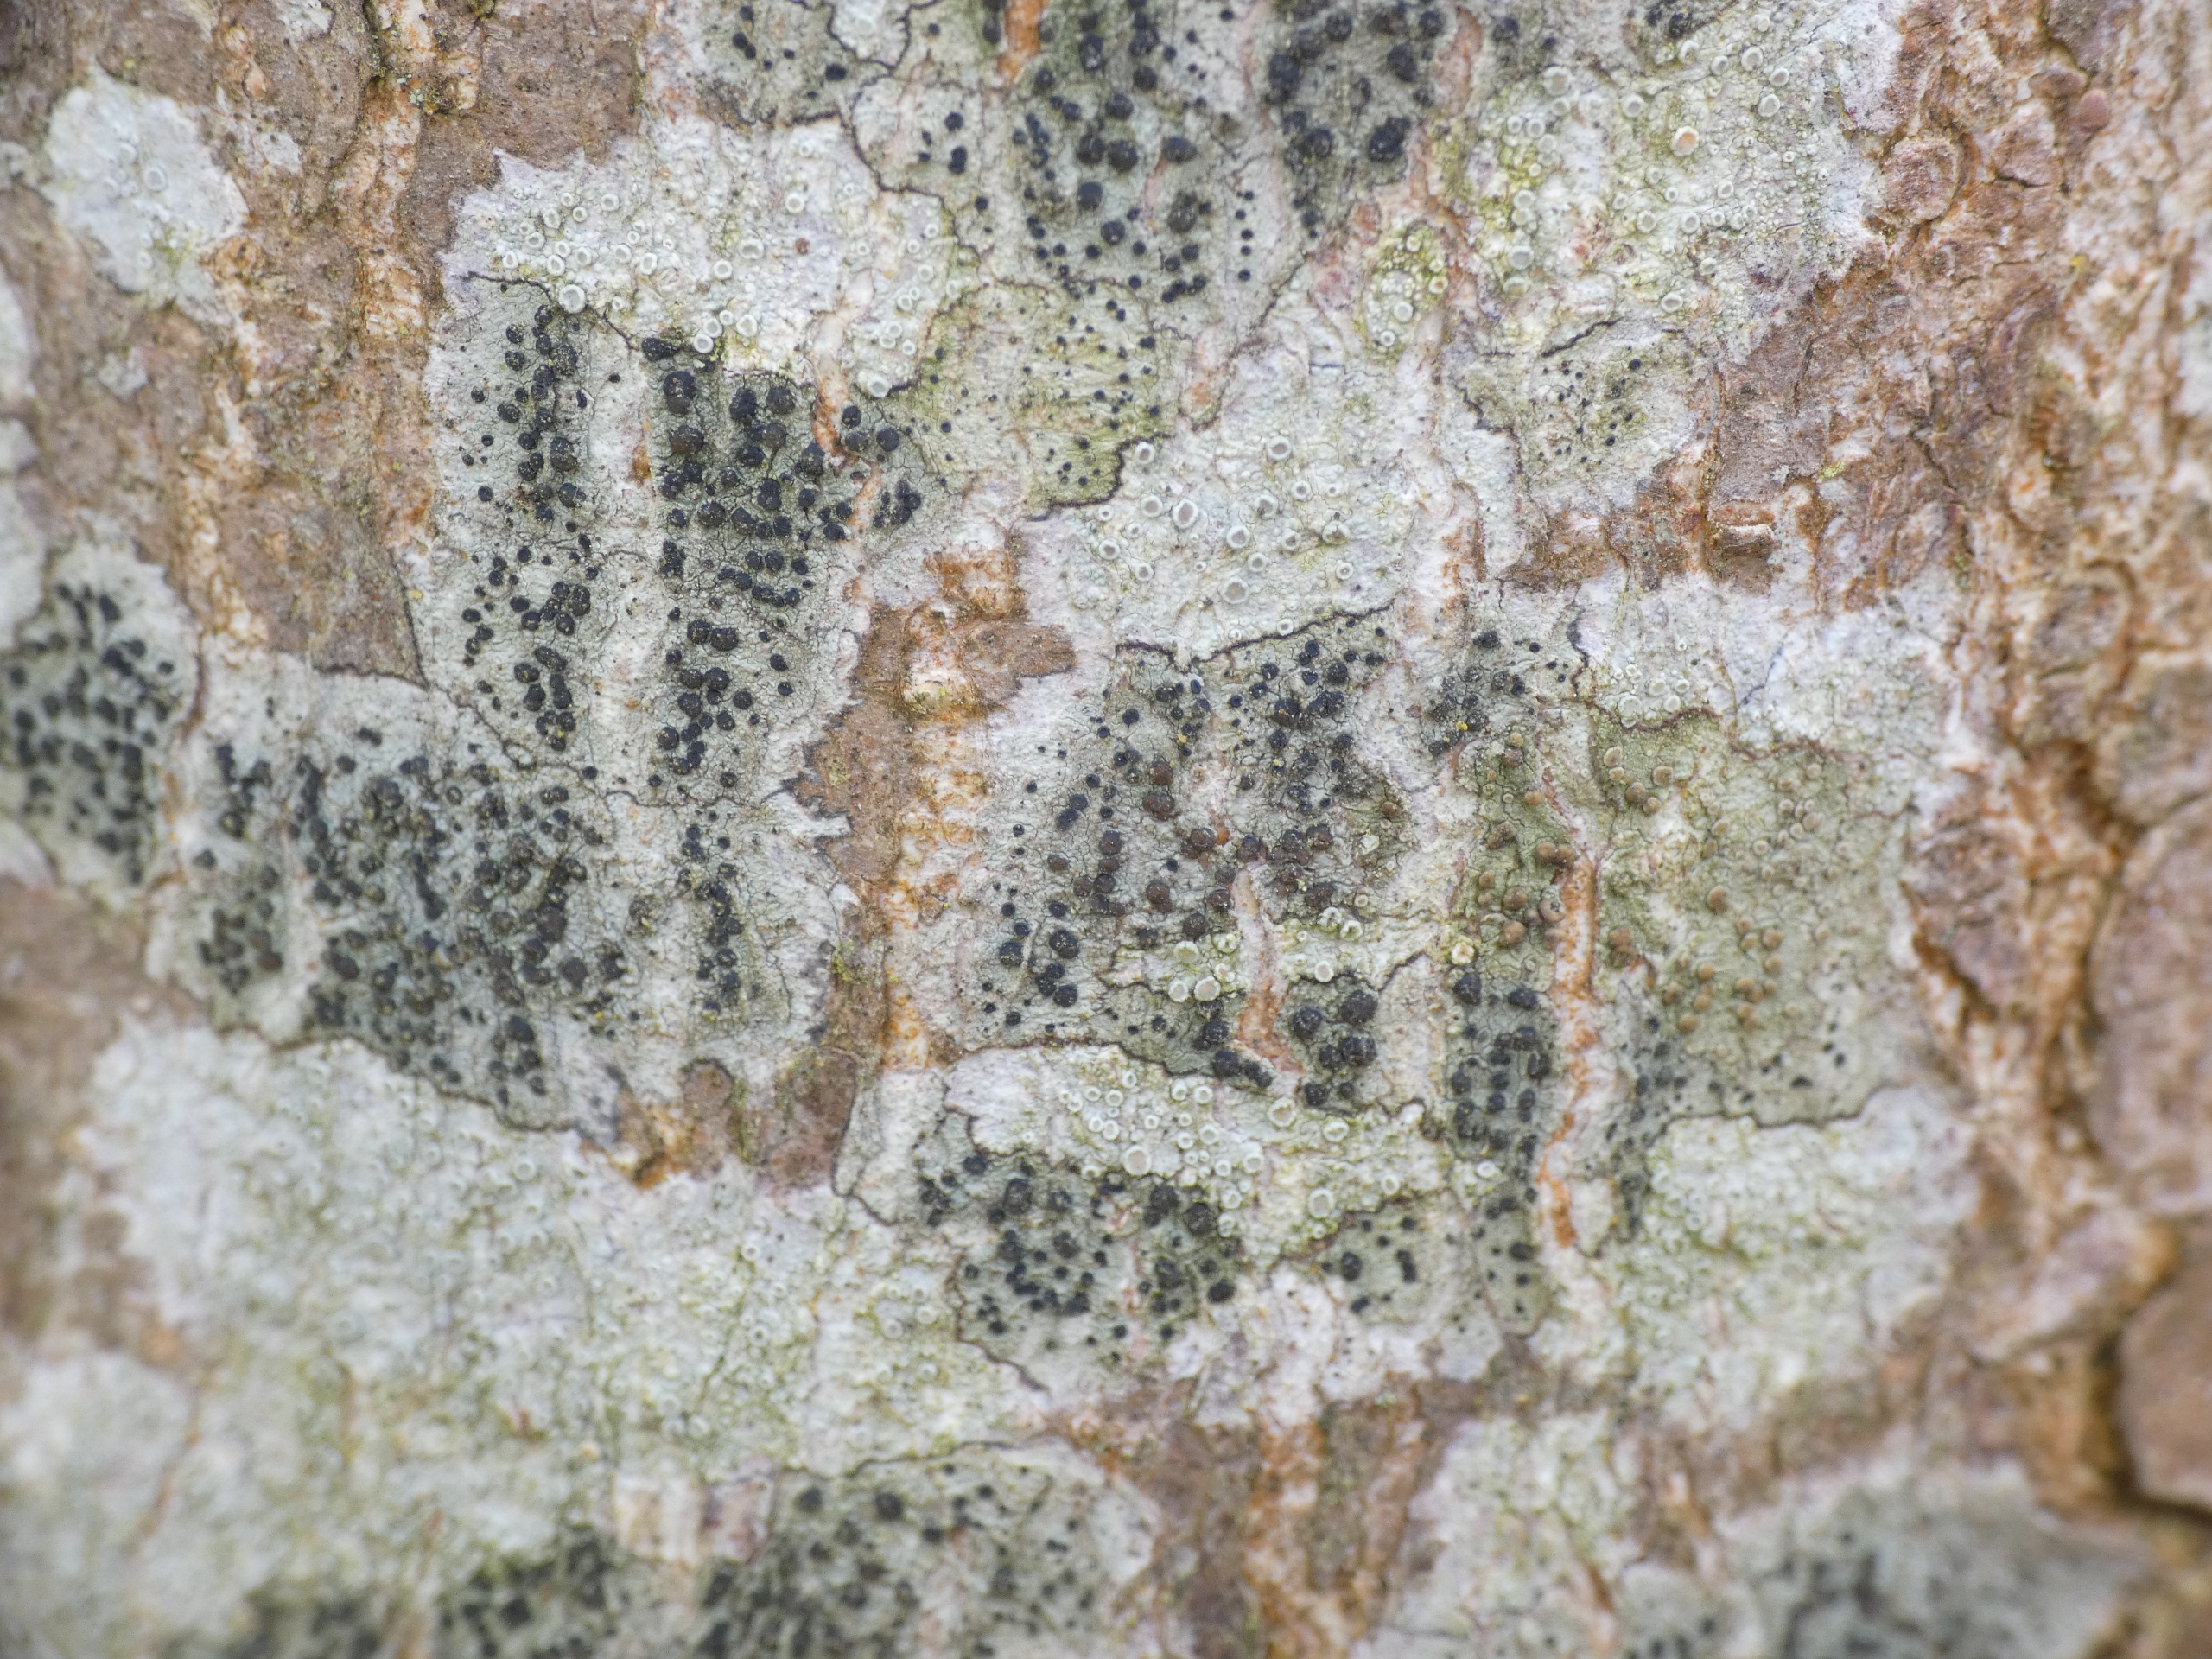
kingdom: Fungi
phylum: Ascomycota
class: Lecanoromycetes
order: Lecanorales
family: Lecanoraceae
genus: Lecidella
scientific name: Lecidella elaeochroma
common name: Grågrøn skivelav
